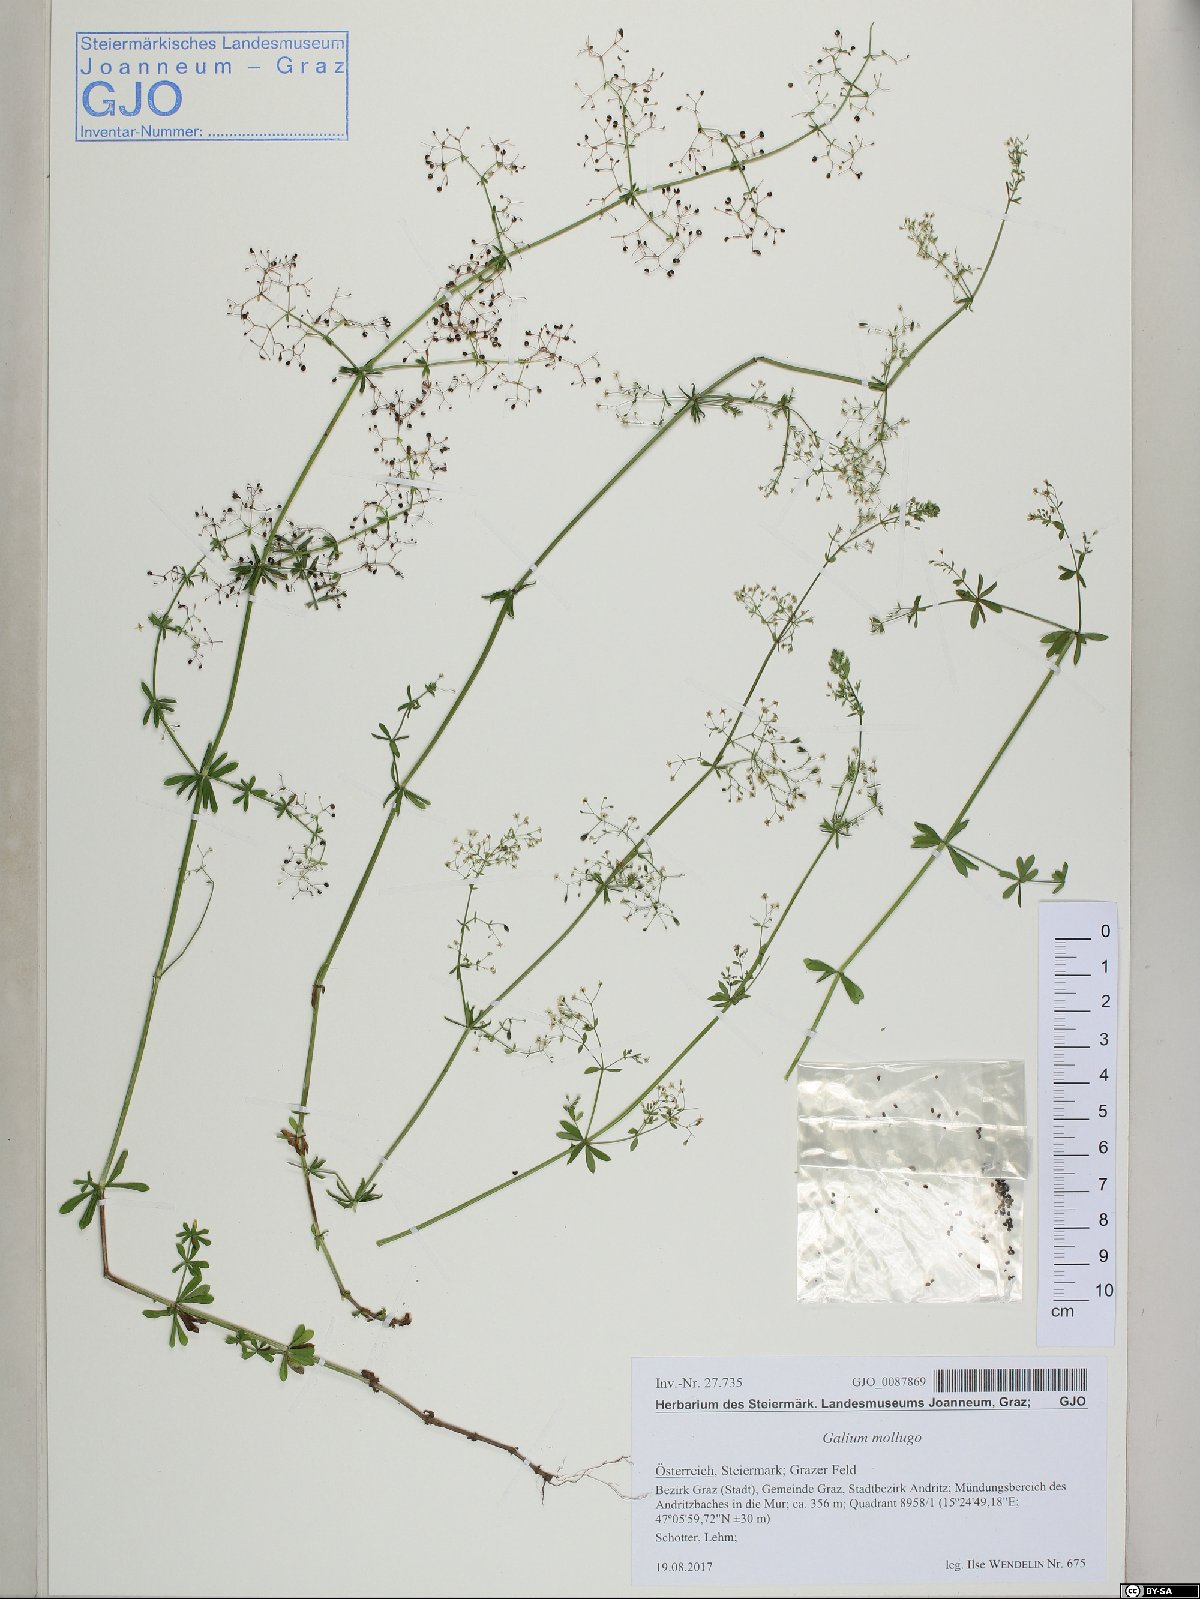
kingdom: Plantae
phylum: Tracheophyta
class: Magnoliopsida
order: Gentianales
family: Rubiaceae
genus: Galium
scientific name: Galium mollugo
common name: Hedge bedstraw
